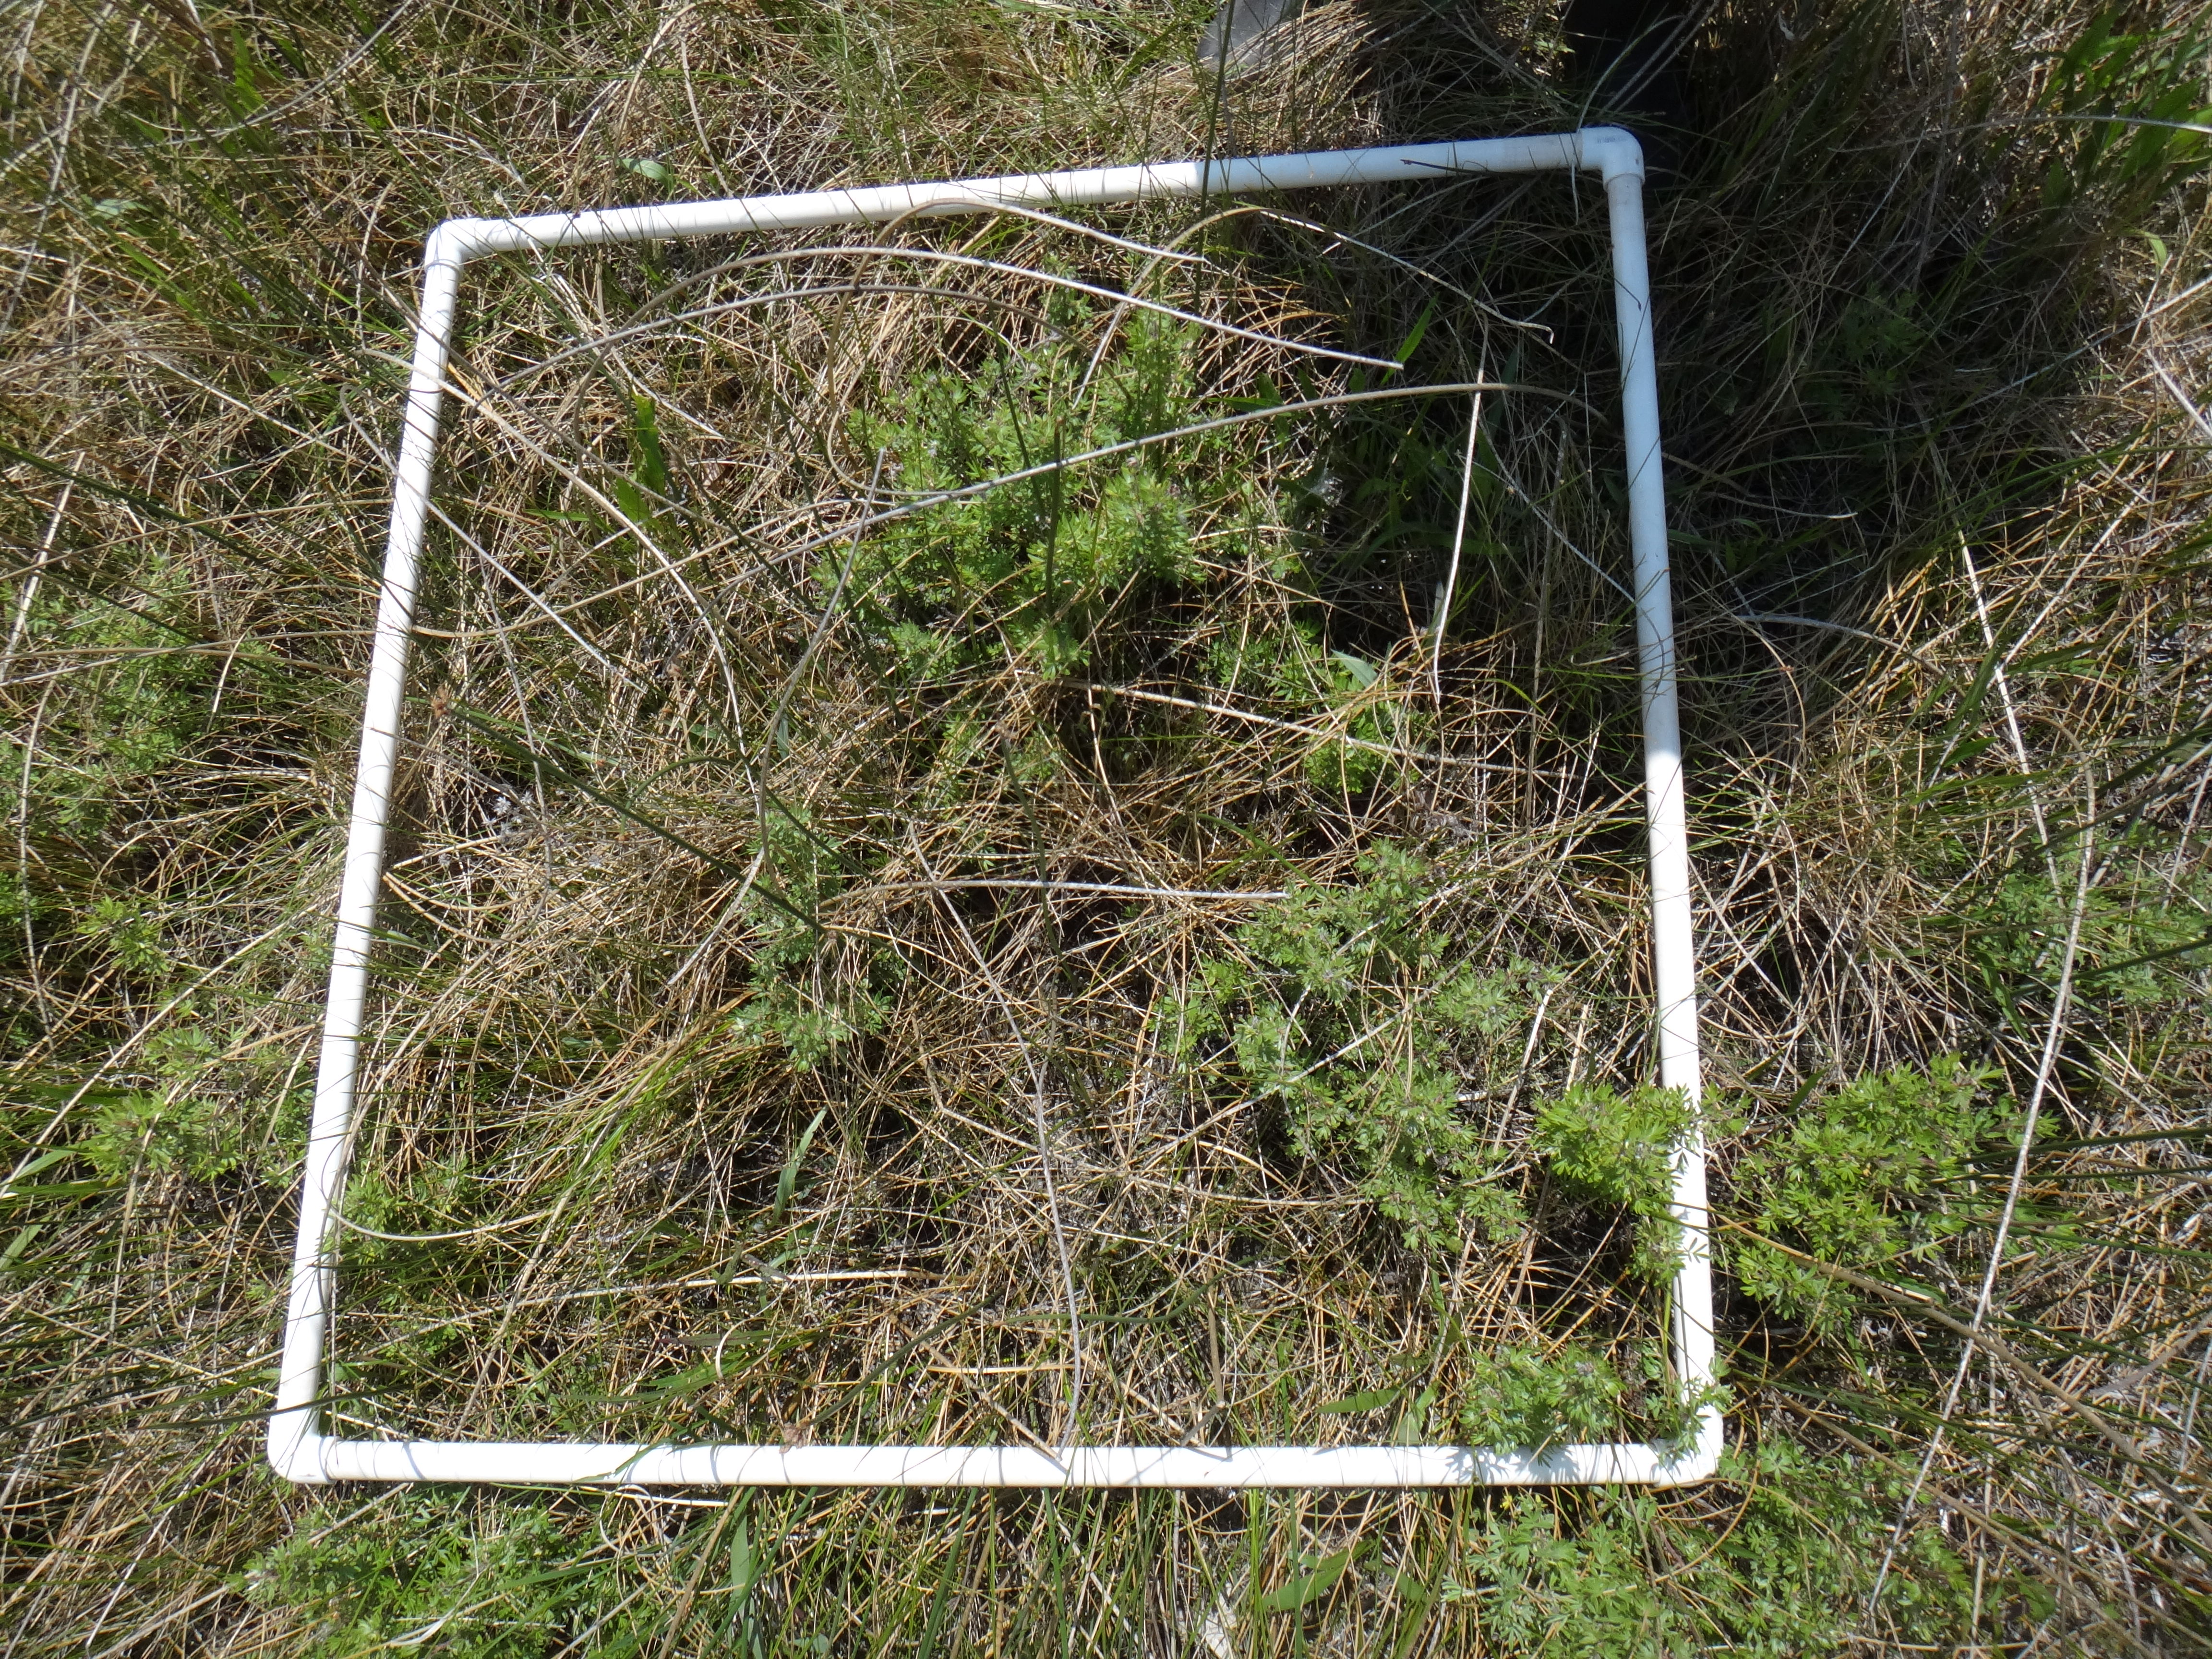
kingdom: Plantae
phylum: Tracheophyta
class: Magnoliopsida
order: Asterales
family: Asteraceae
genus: Symphyotrichum
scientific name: Symphyotrichum novae-angliae
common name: Michaelmas daisy
